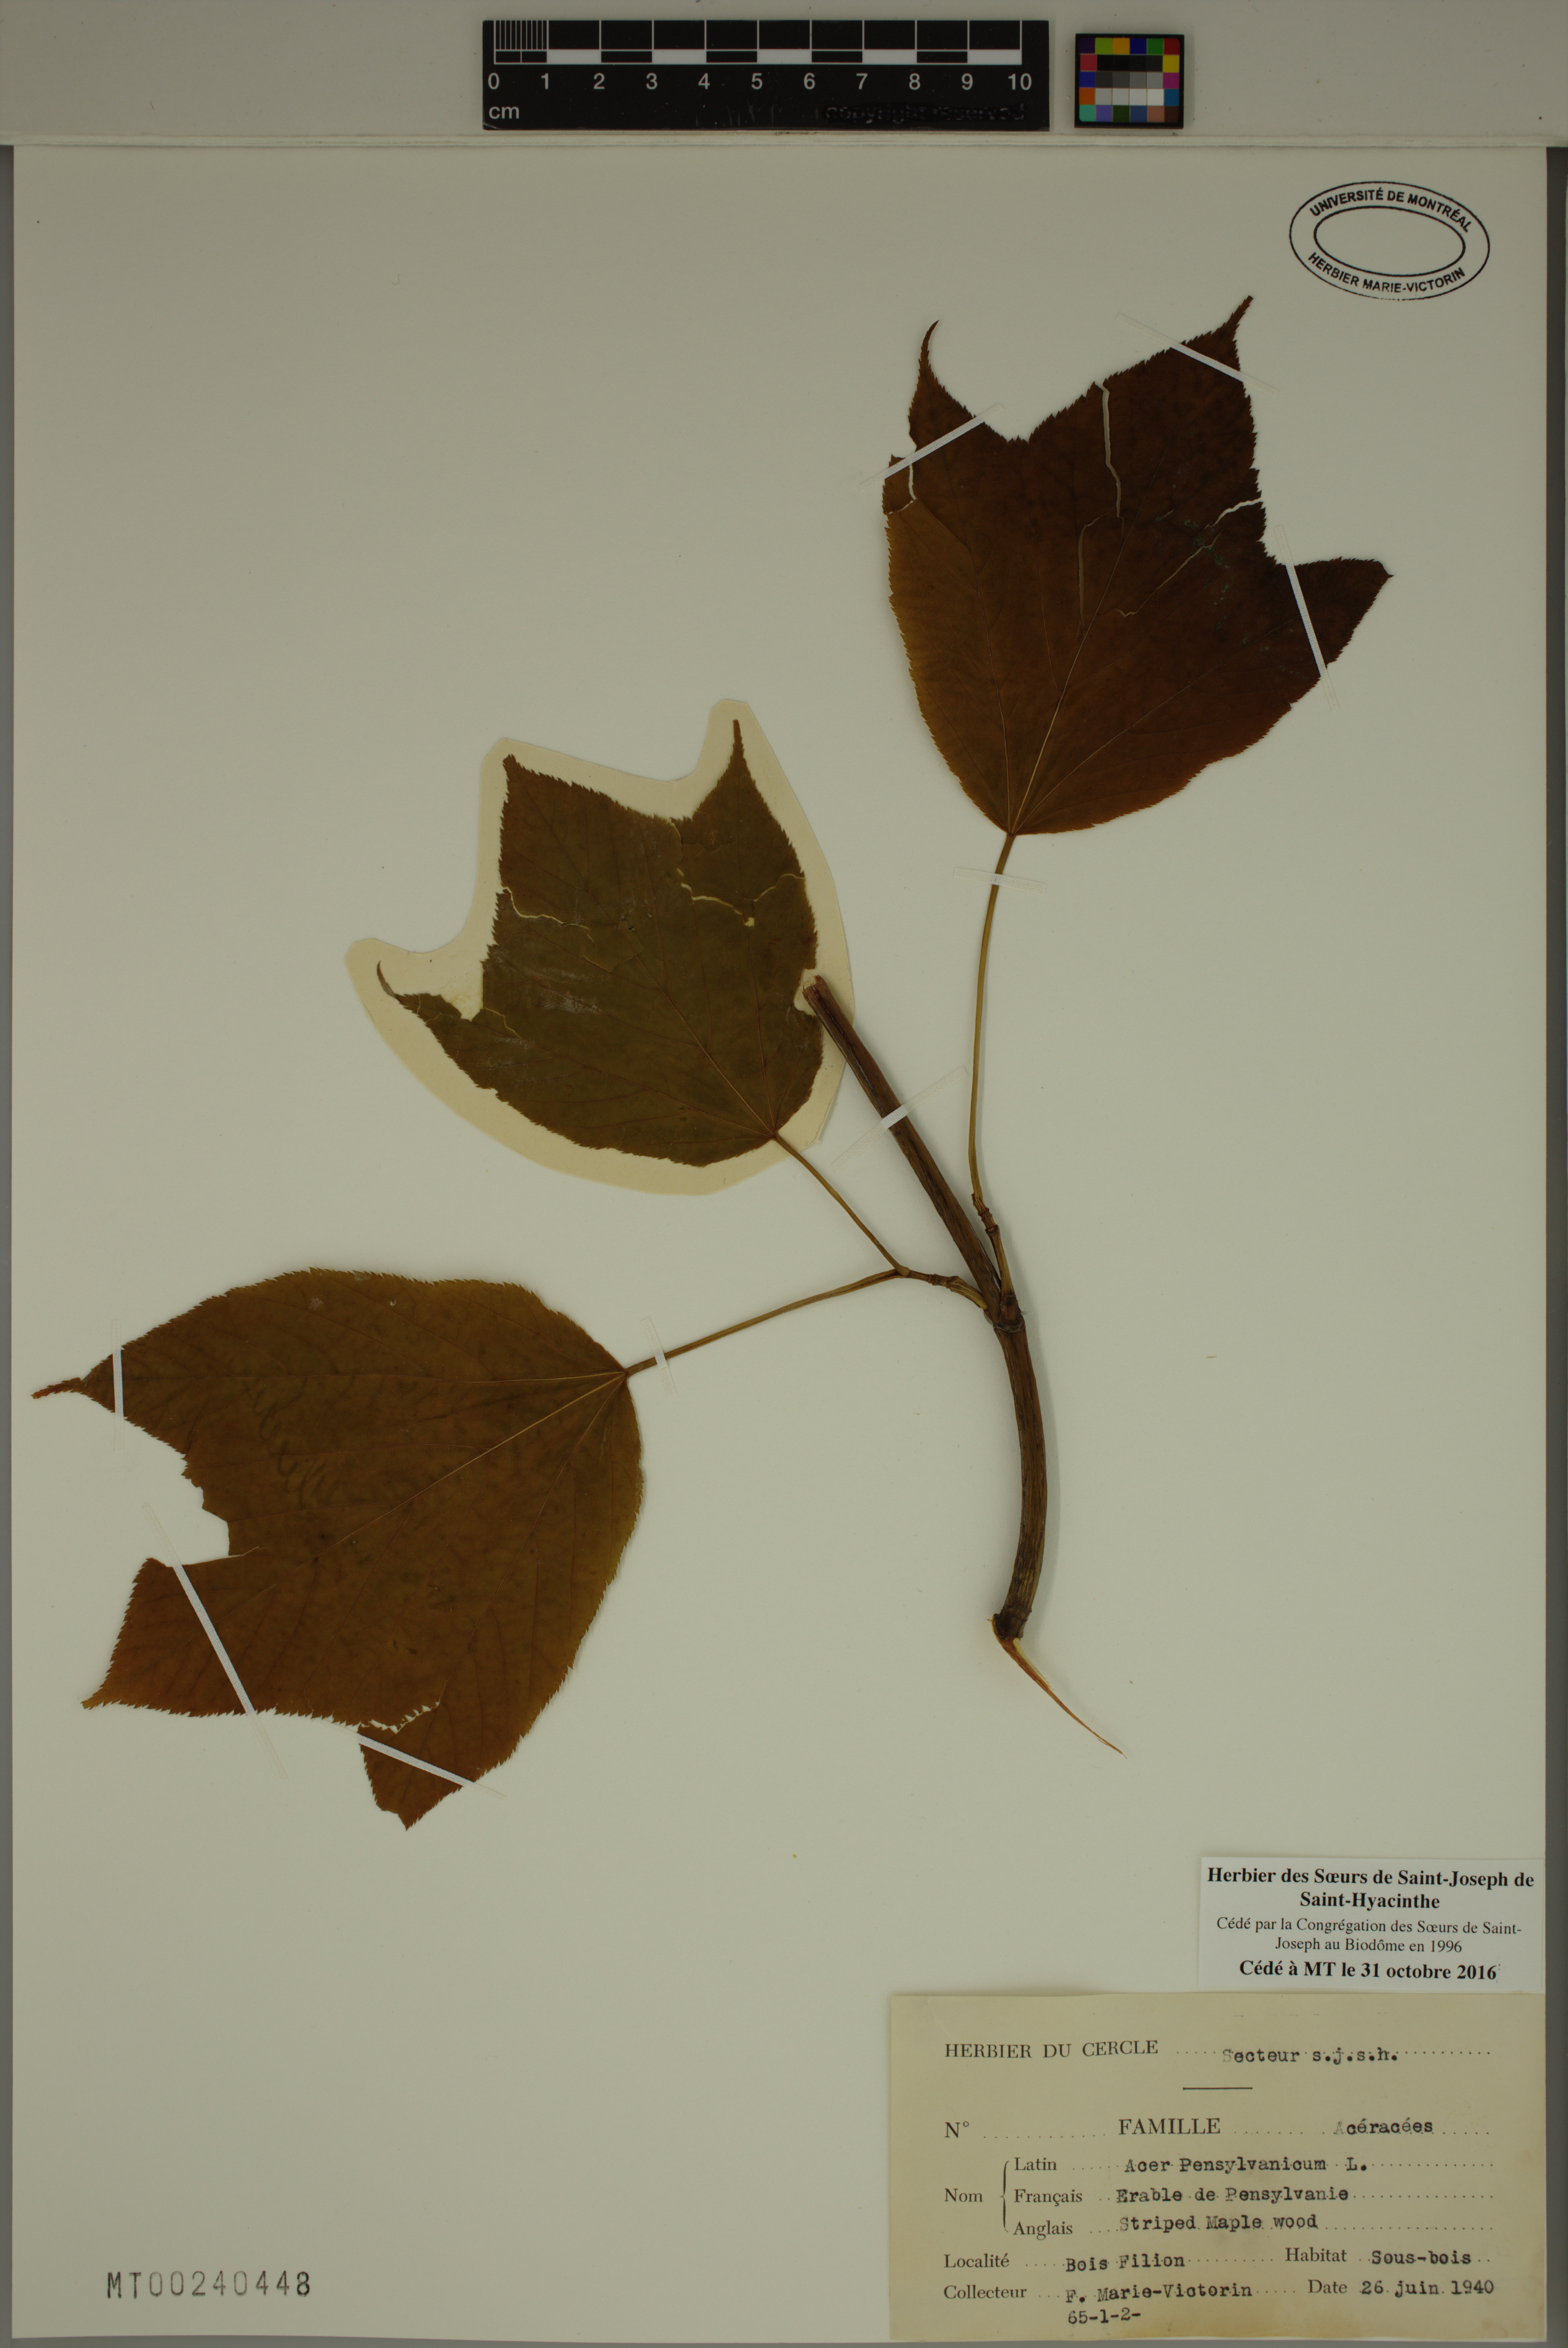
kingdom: Plantae
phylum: Tracheophyta
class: Magnoliopsida
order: Sapindales
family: Sapindaceae
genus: Acer
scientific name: Acer pensylvanicum
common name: Moosewood
